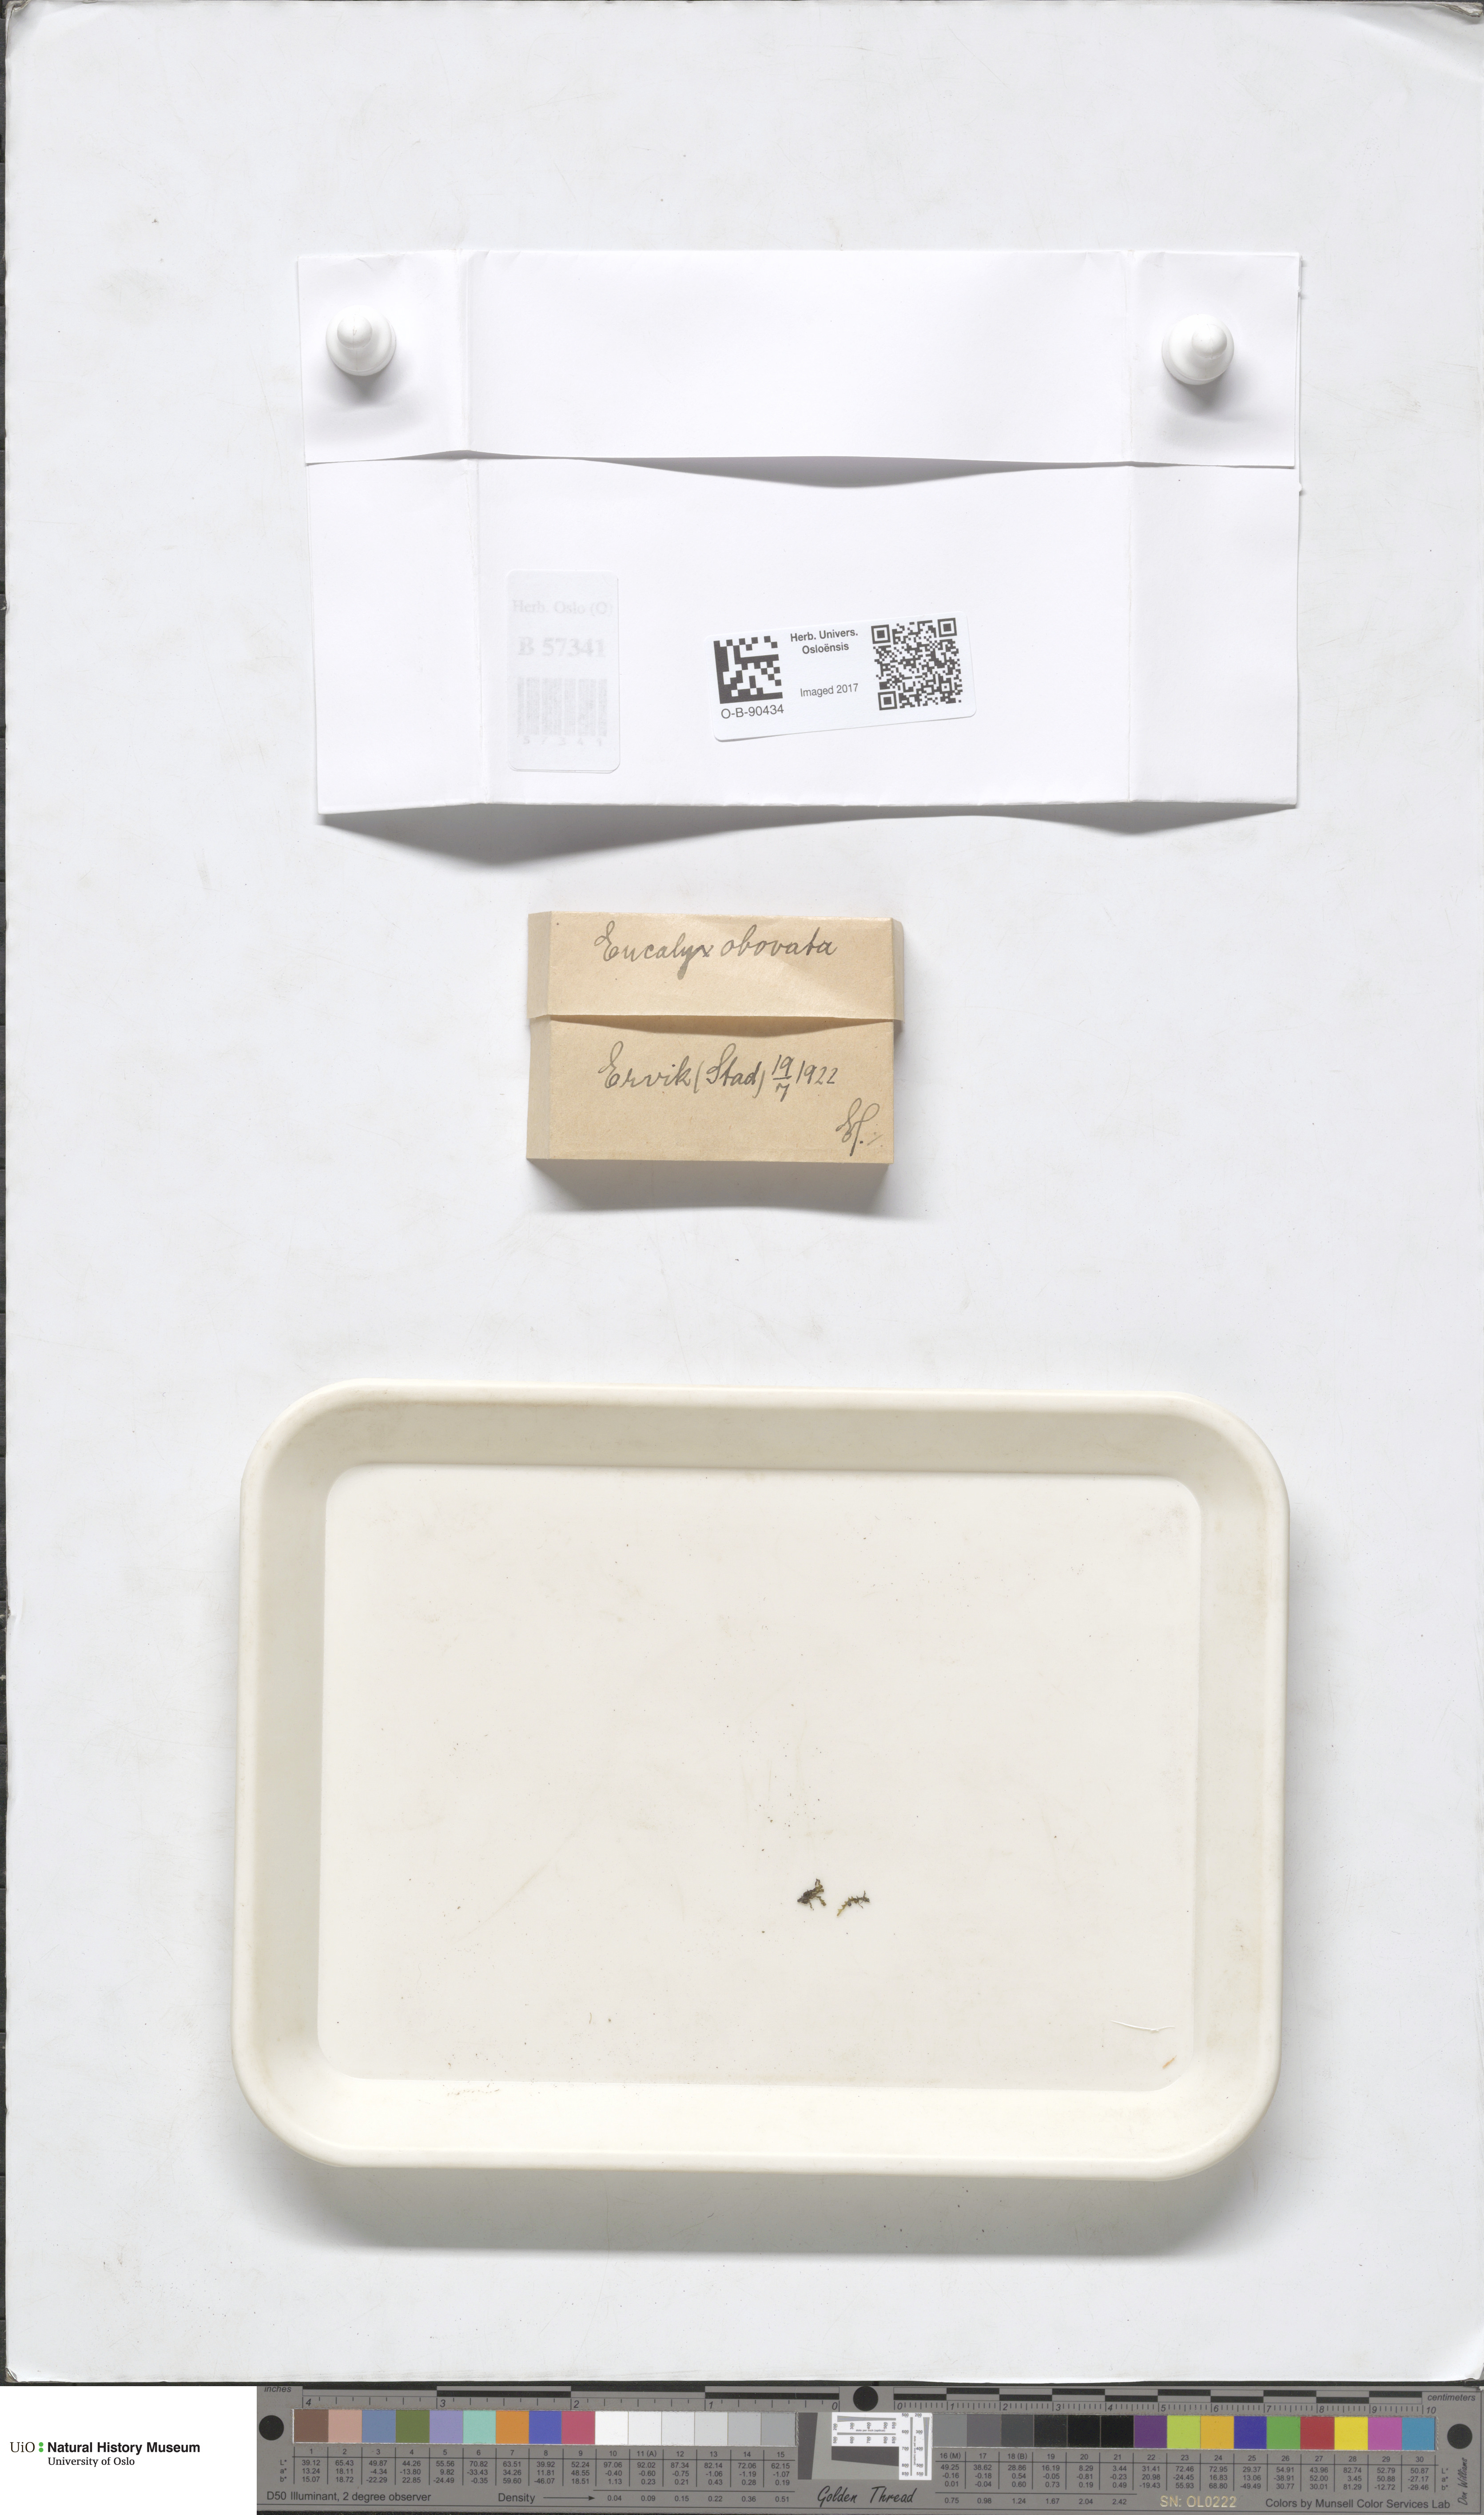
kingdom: Plantae
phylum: Marchantiophyta
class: Jungermanniopsida
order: Jungermanniales
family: Solenostomataceae
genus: Solenostoma
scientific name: Solenostoma obovatum
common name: Egg flapwort
